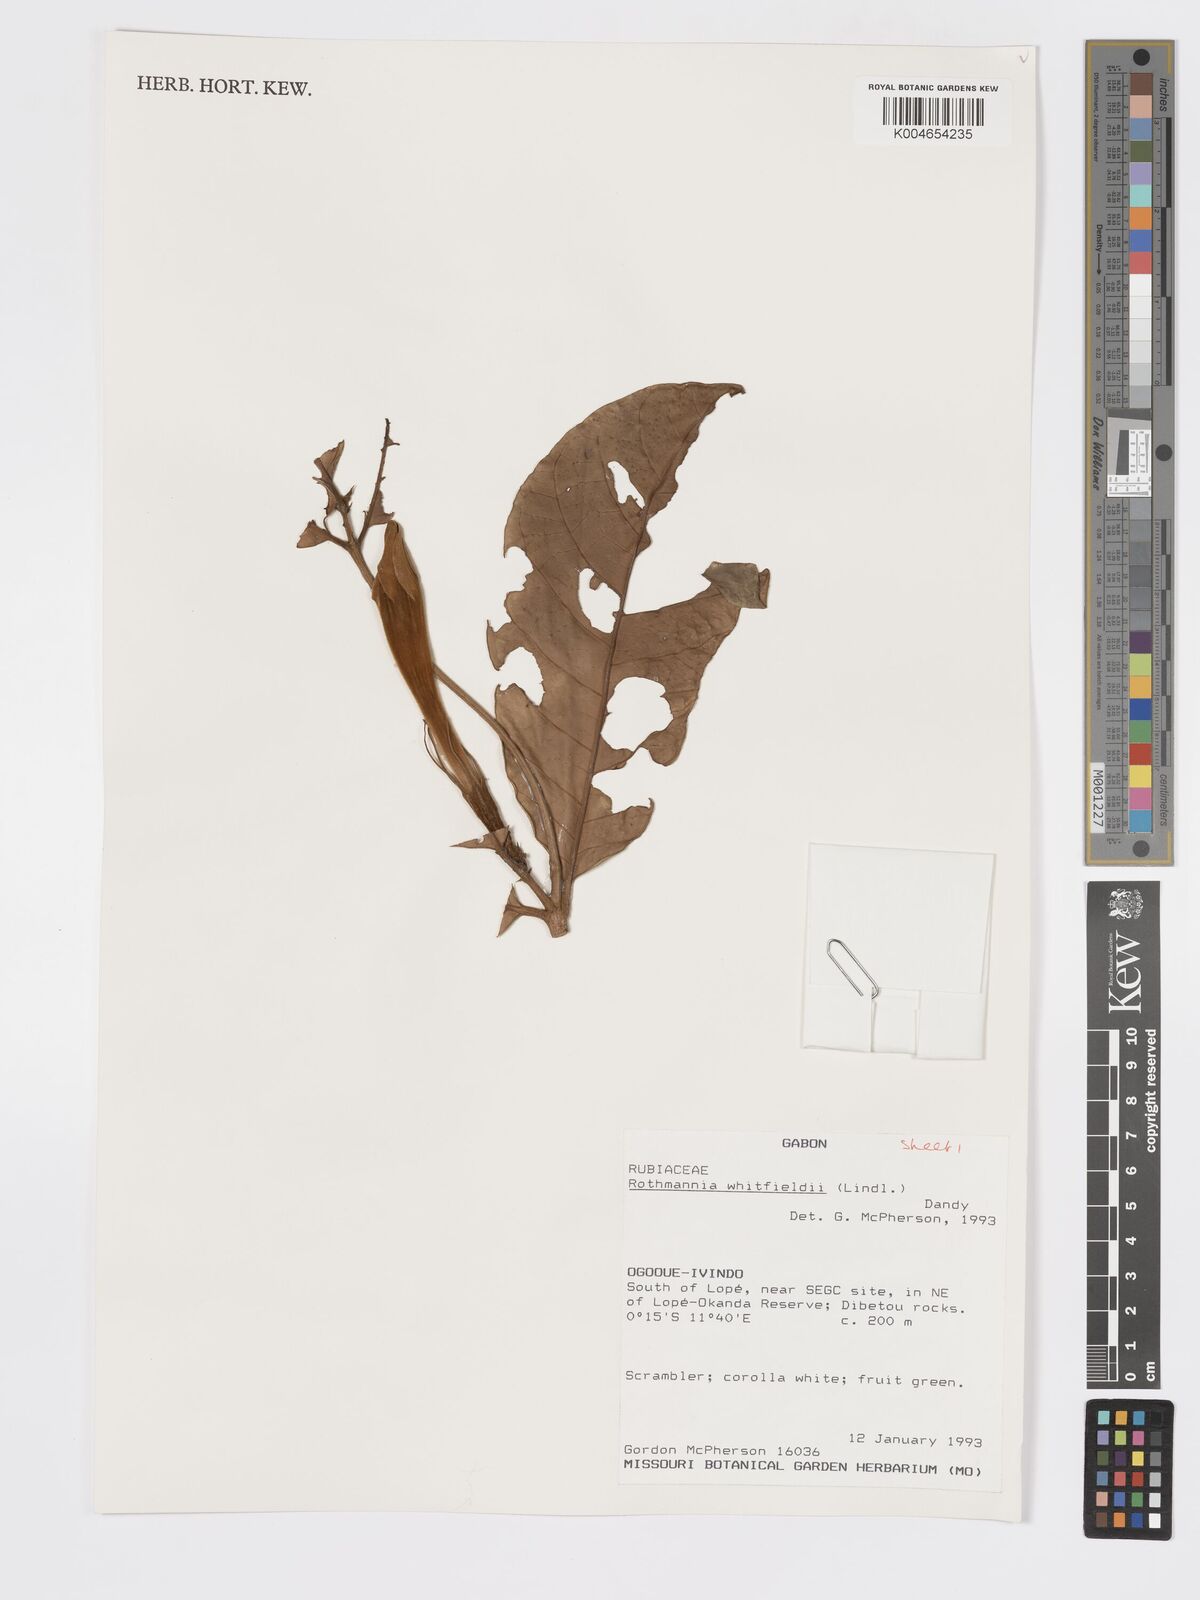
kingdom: Plantae
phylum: Tracheophyta
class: Magnoliopsida
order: Gentianales
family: Rubiaceae
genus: Rothmannia
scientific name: Rothmannia whitfieldii
